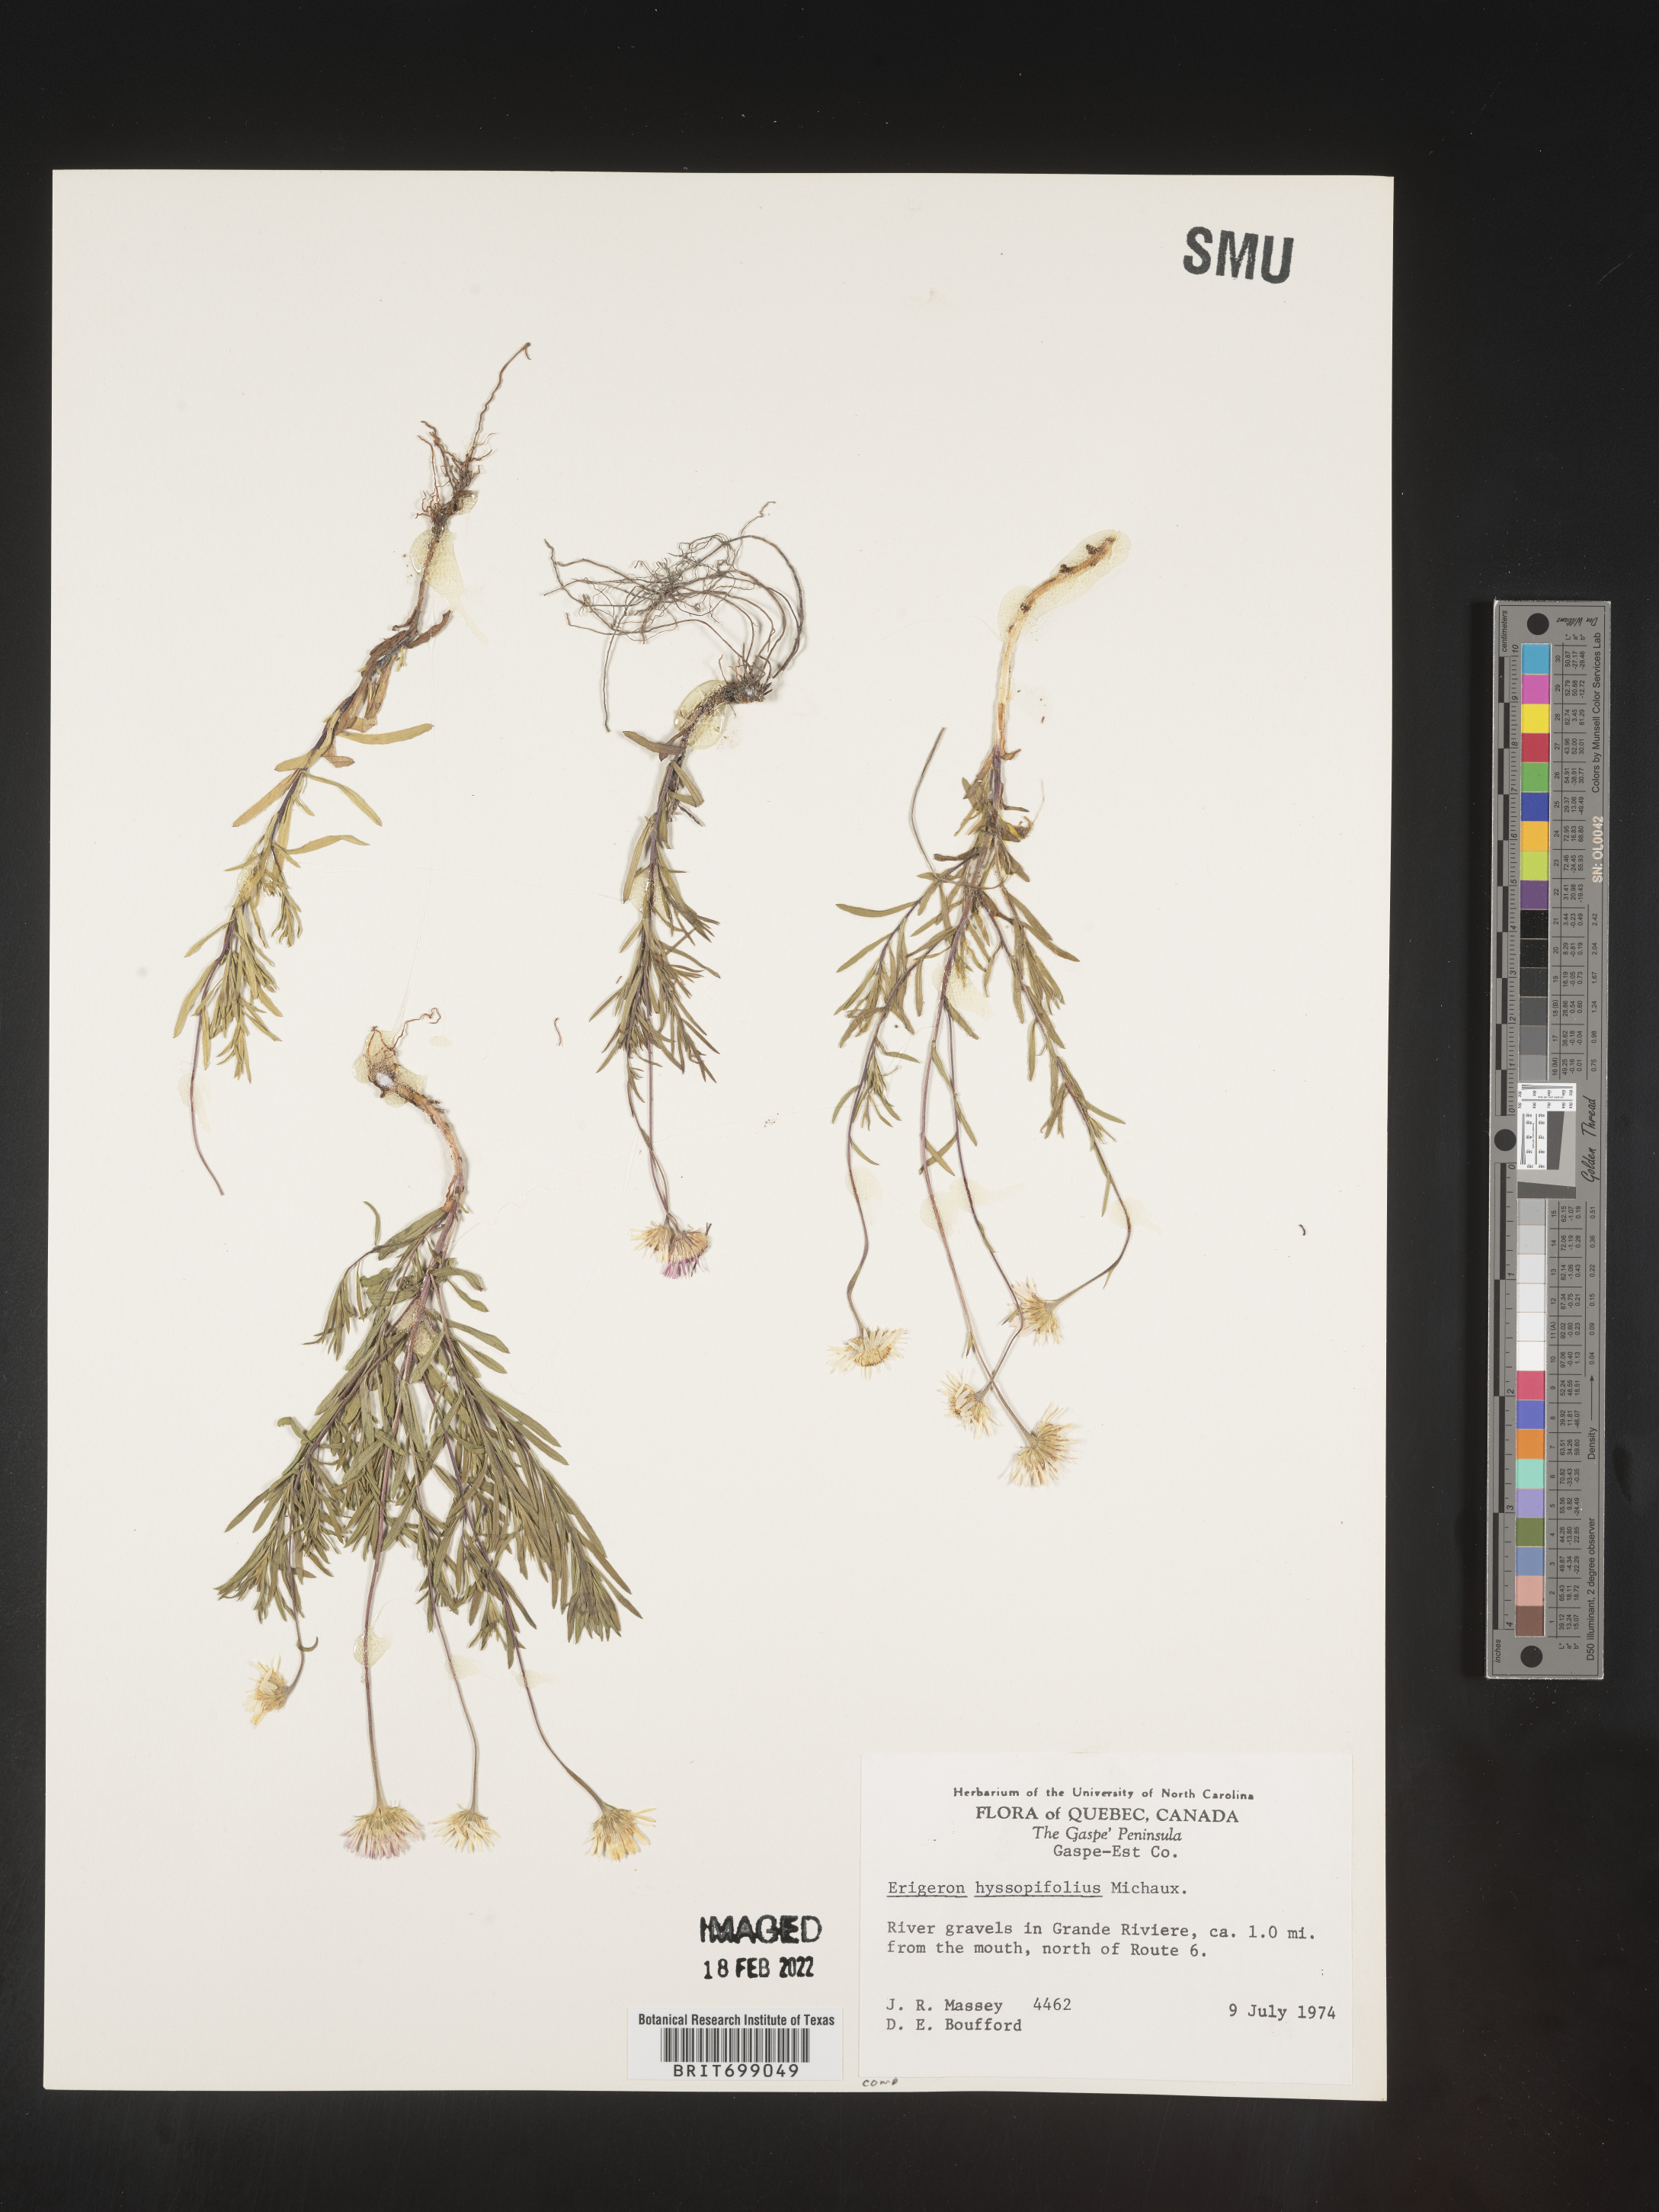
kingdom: Plantae
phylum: Tracheophyta
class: Magnoliopsida
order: Asterales
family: Asteraceae
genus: Erigeron
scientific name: Erigeron hyssopifolius
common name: Daisy fleabane
